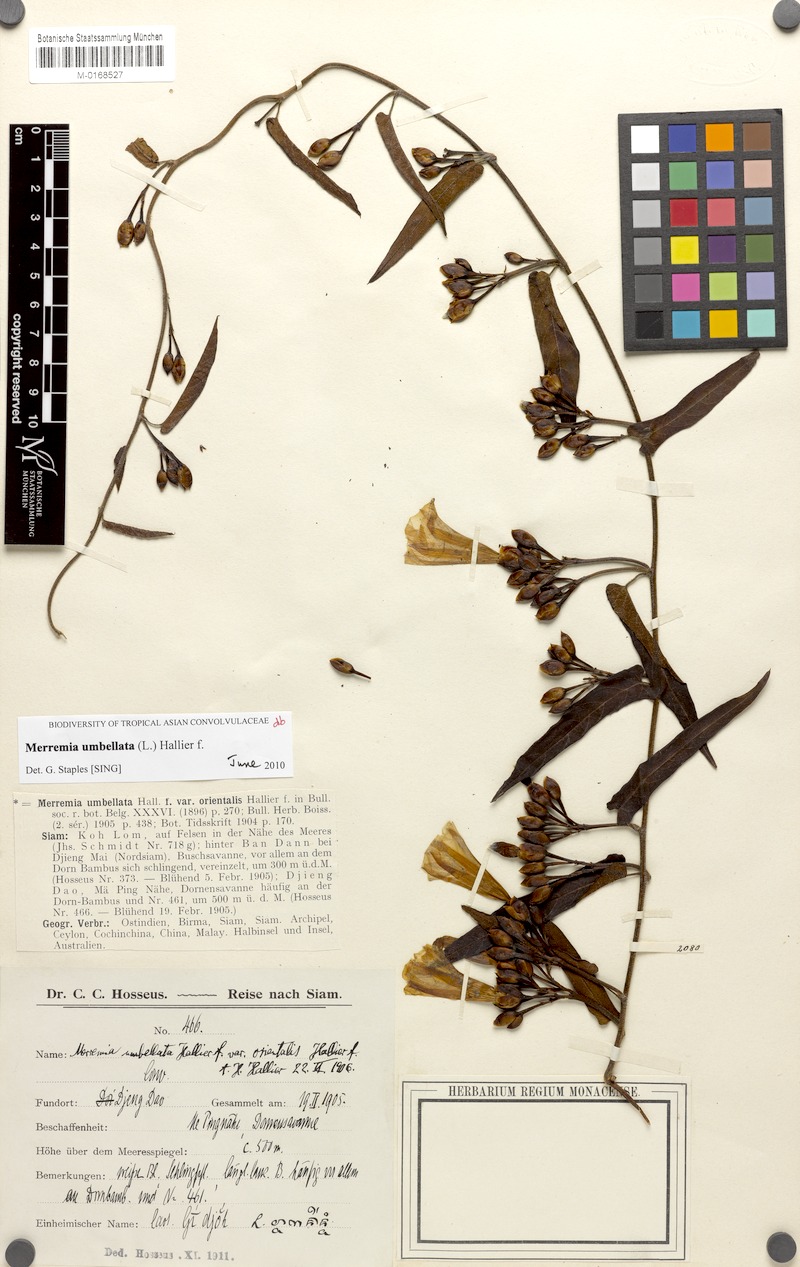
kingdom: Plantae
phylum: Tracheophyta
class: Magnoliopsida
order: Solanales
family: Convolvulaceae
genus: Camonea
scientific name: Camonea umbellata
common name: Hogvine
